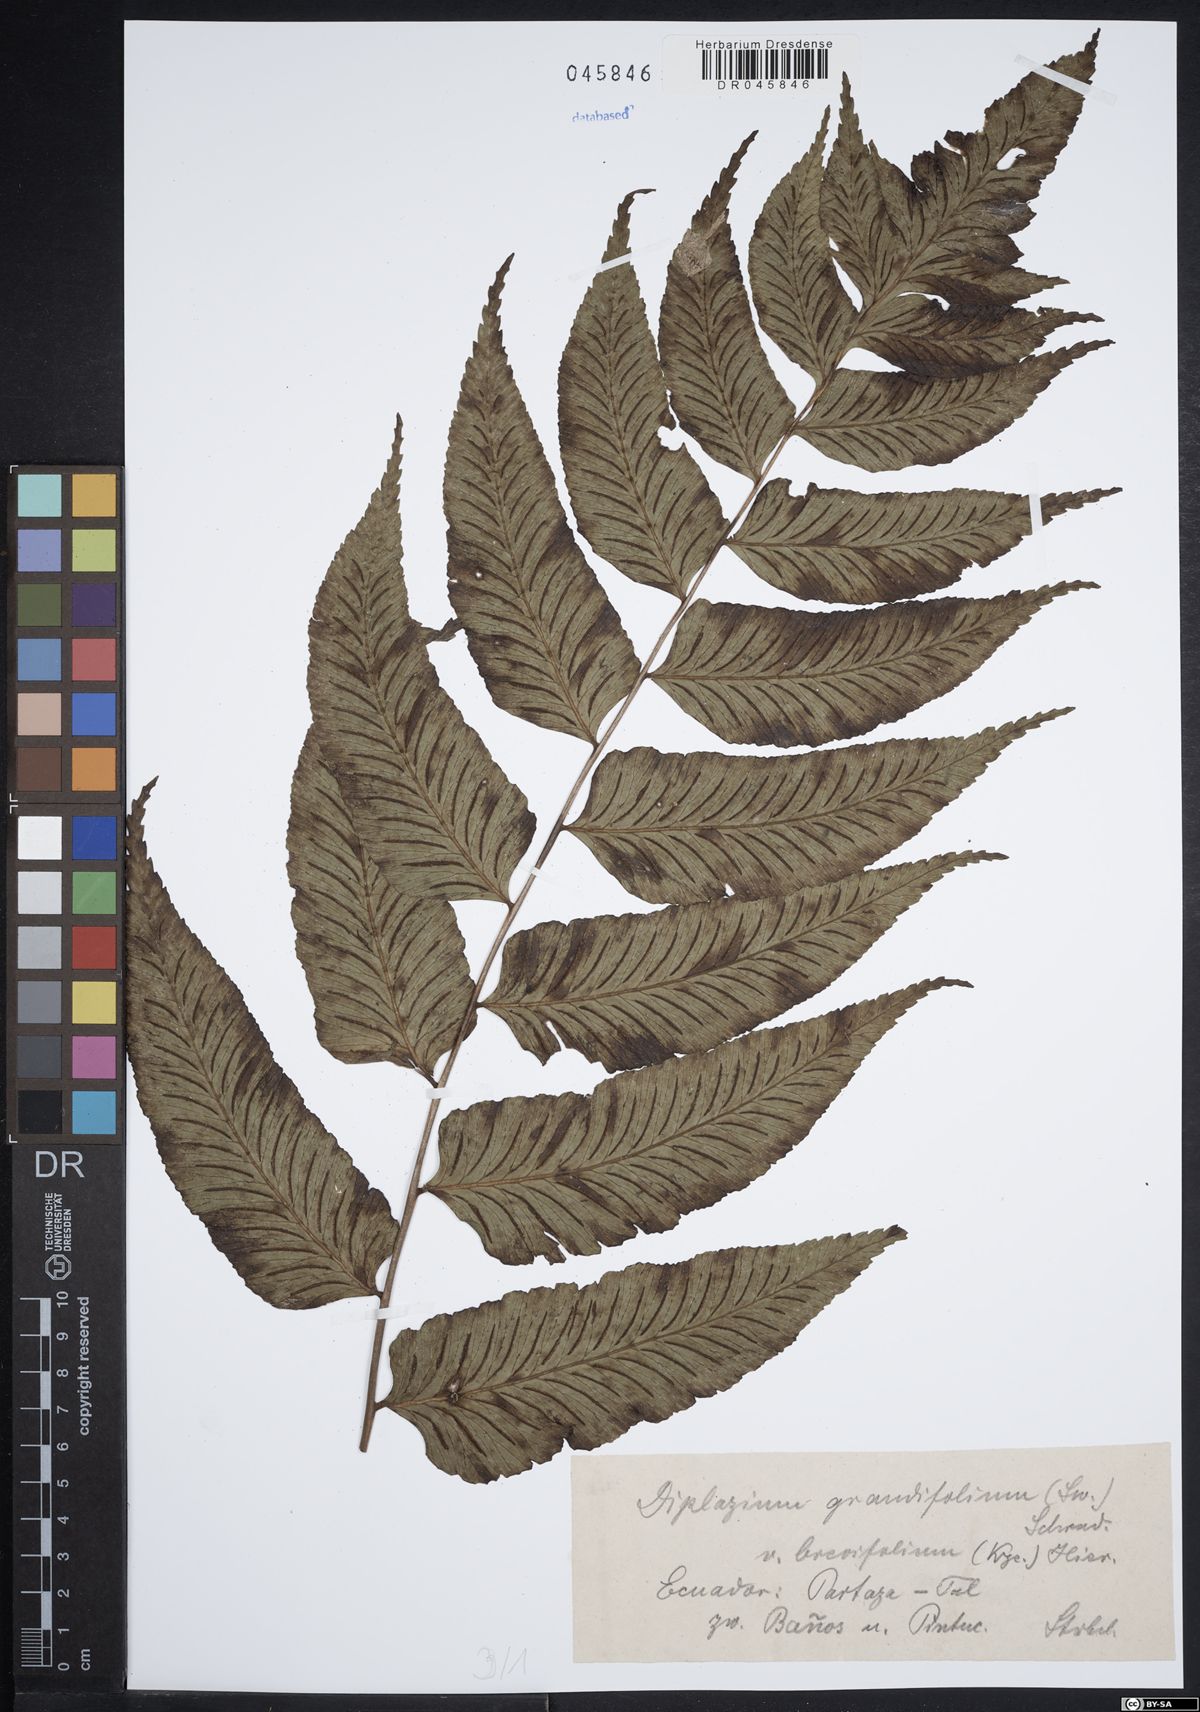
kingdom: Plantae
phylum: Tracheophyta
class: Polypodiopsida
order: Polypodiales
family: Athyriaceae
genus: Diplazium
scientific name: Diplazium grandifolium
